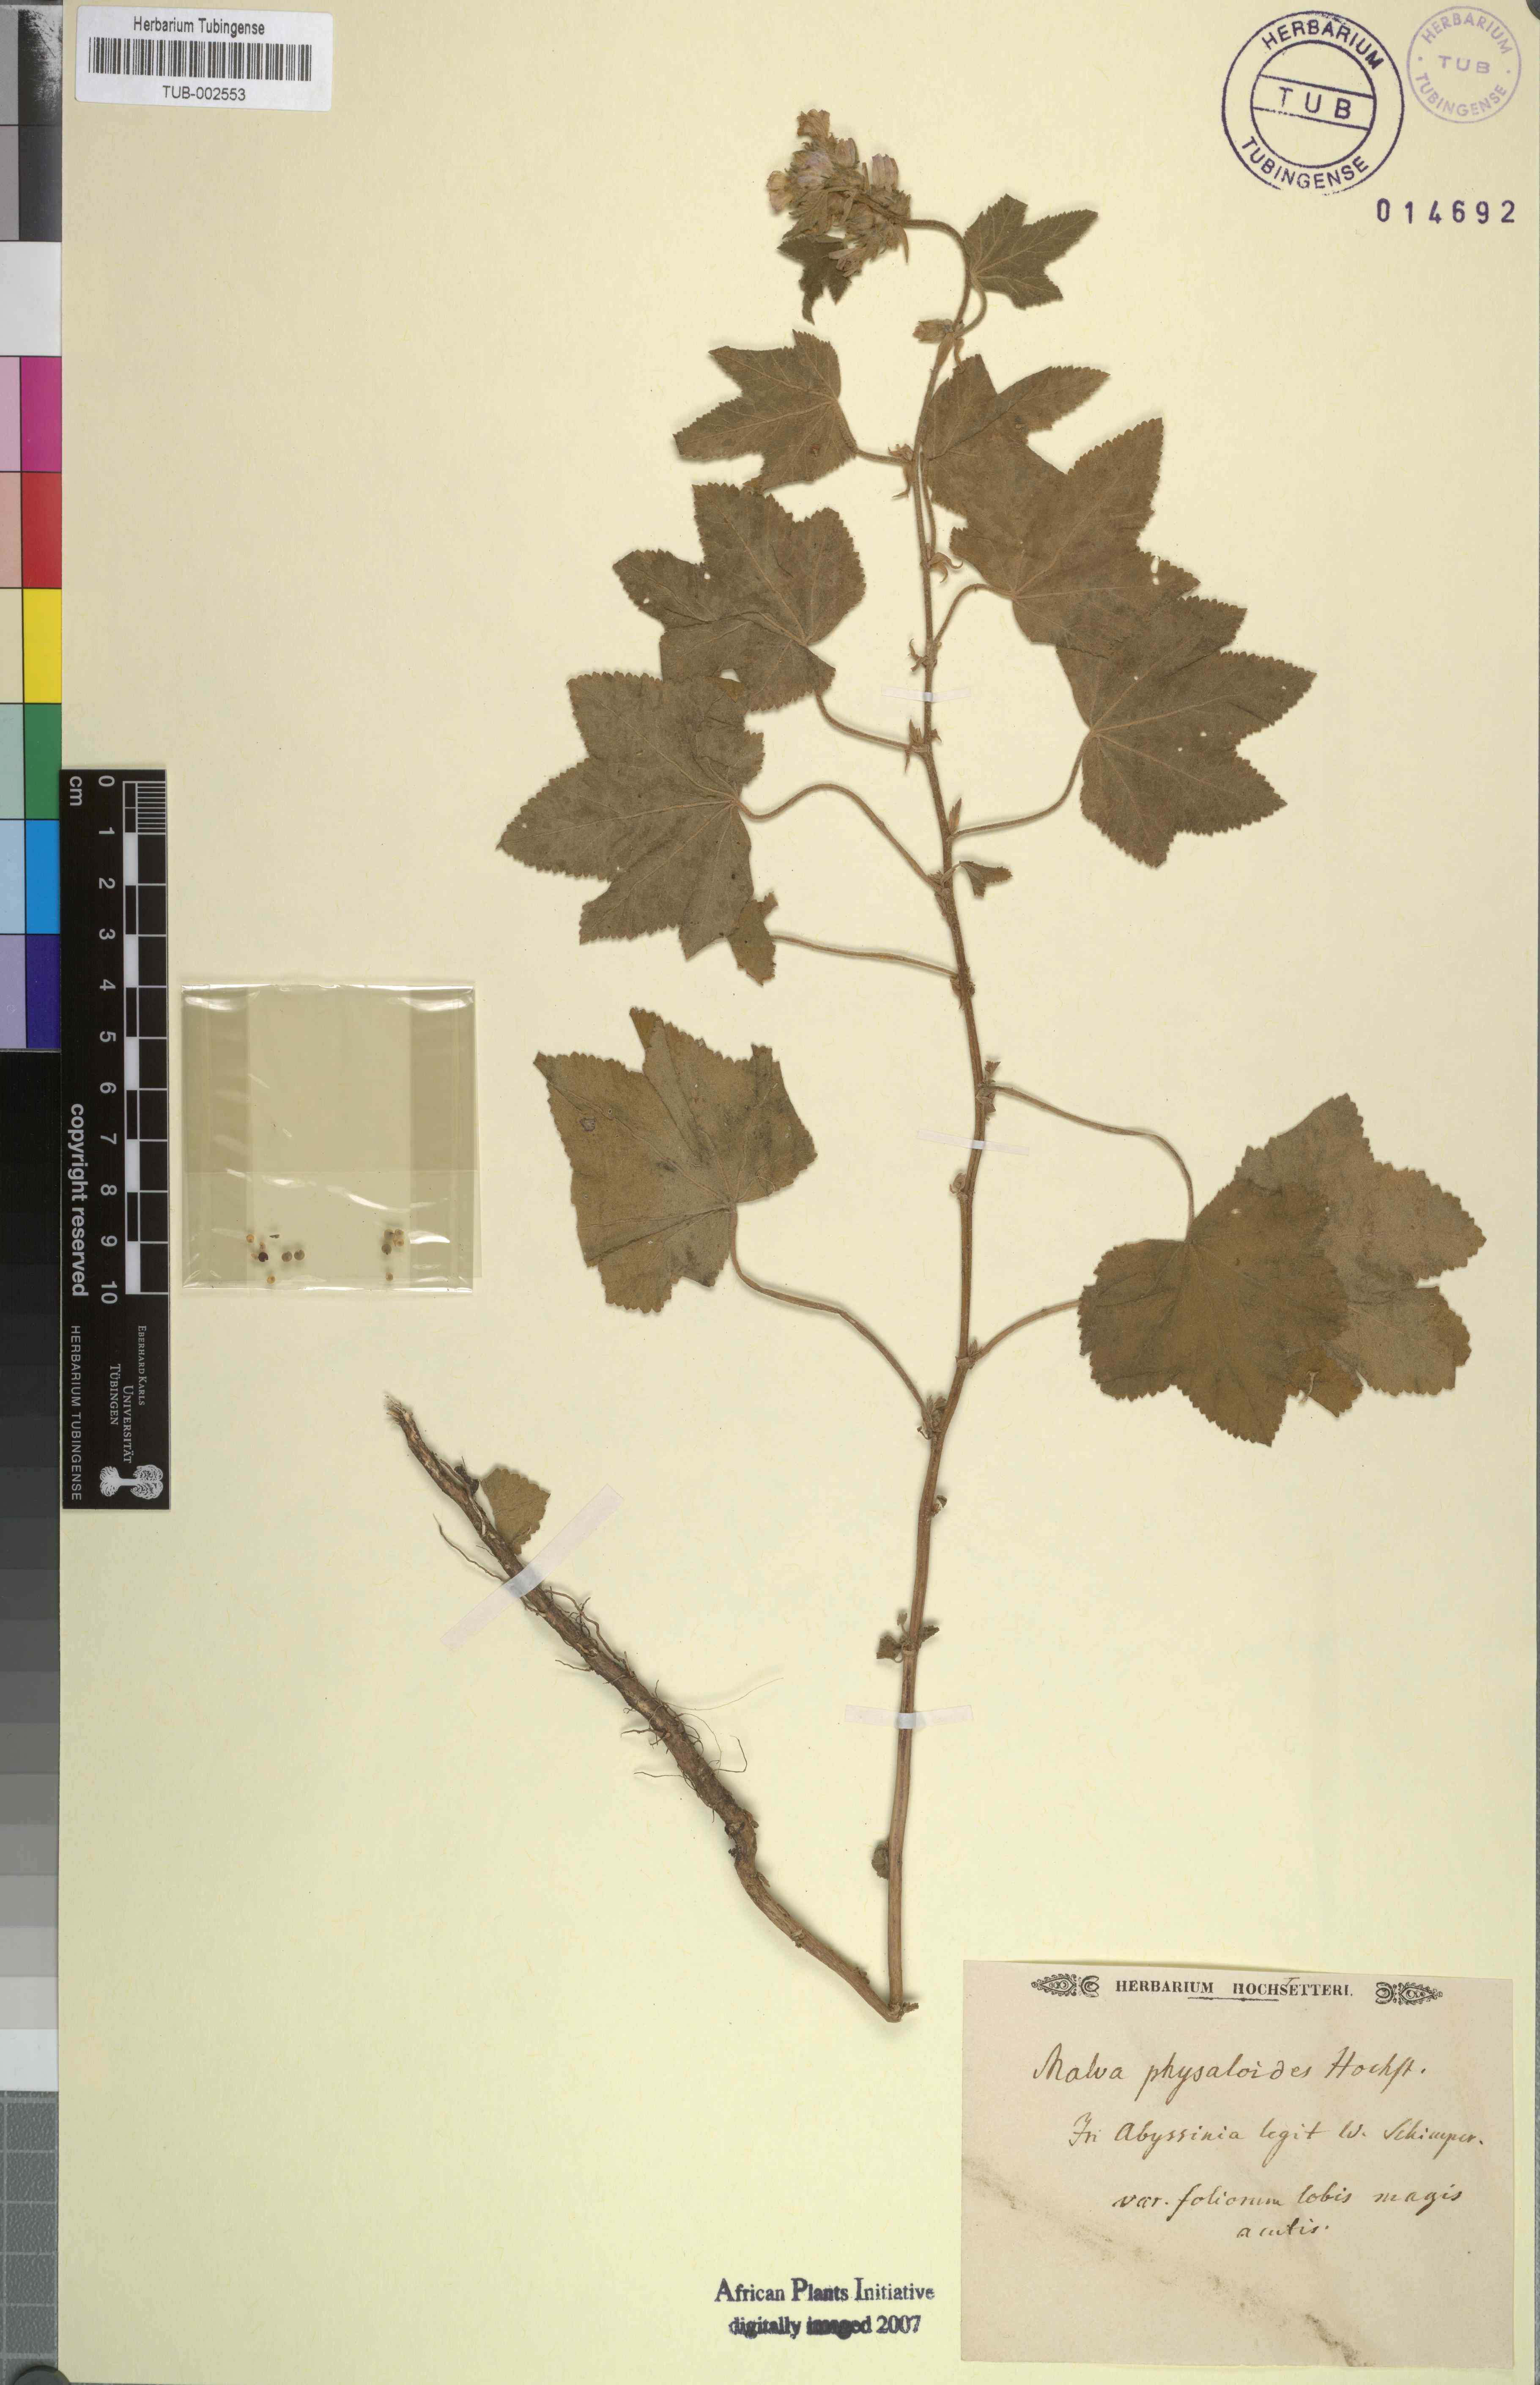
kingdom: Plantae
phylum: Tracheophyta
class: Magnoliopsida
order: Malvales
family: Malvaceae
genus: Malva
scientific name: Malva
